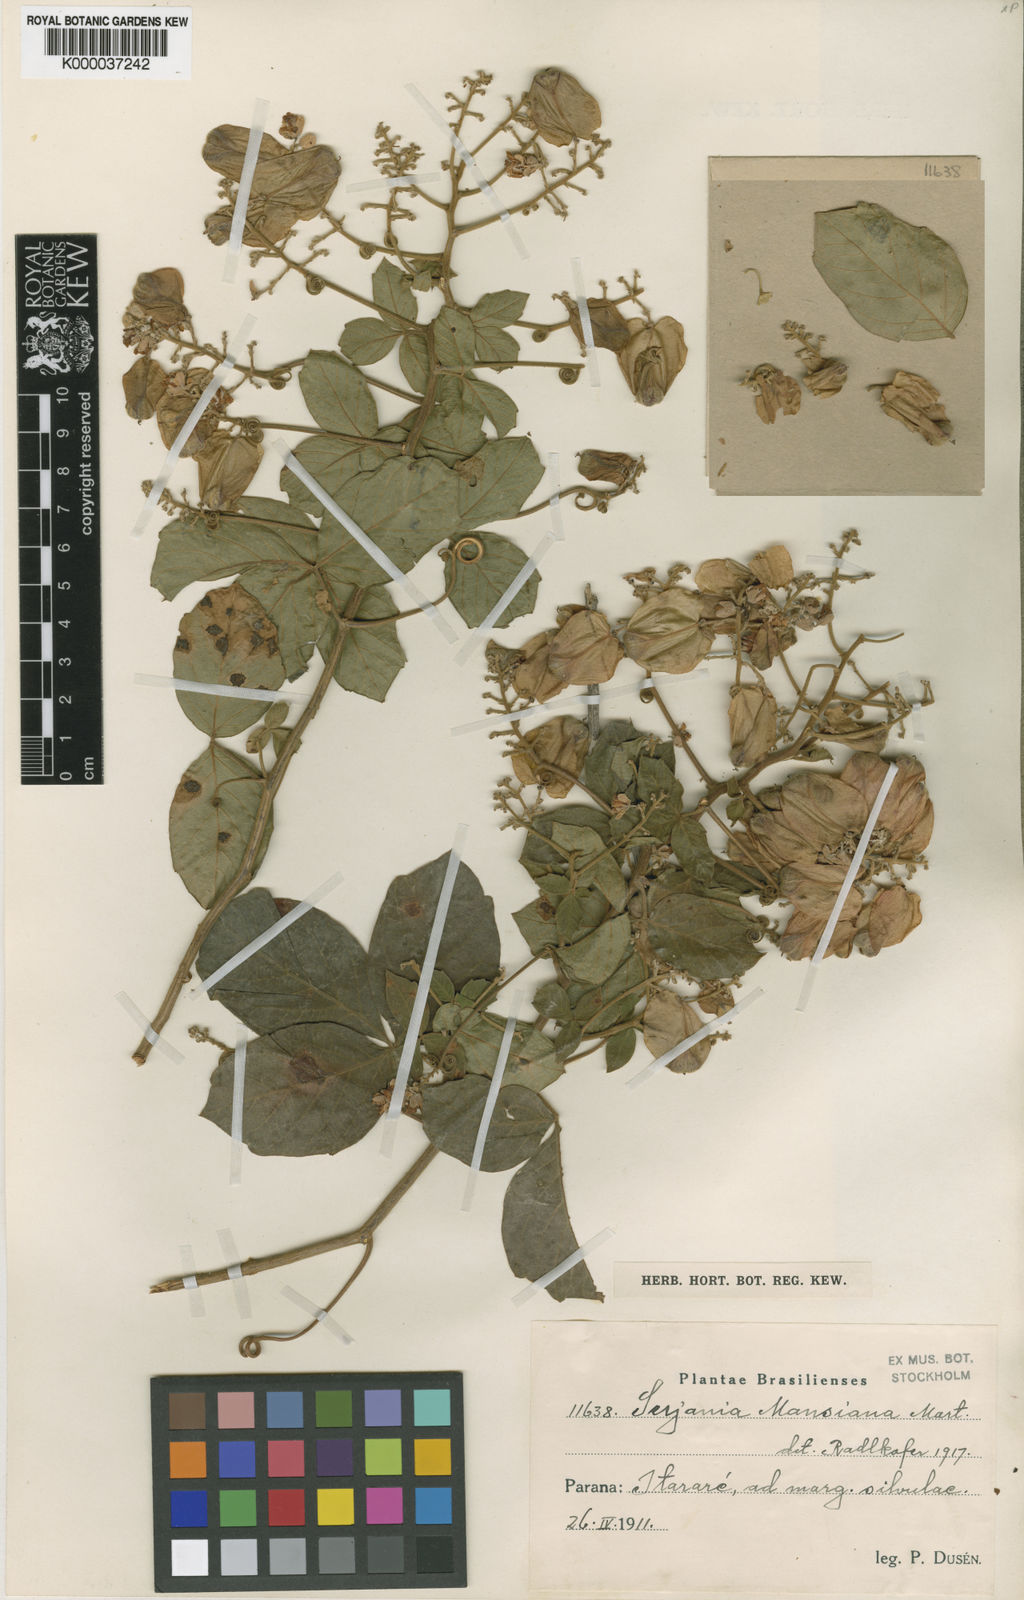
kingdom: Plantae
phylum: Tracheophyta
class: Magnoliopsida
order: Sapindales
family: Sapindaceae
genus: Serjania
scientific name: Serjania mansiana
